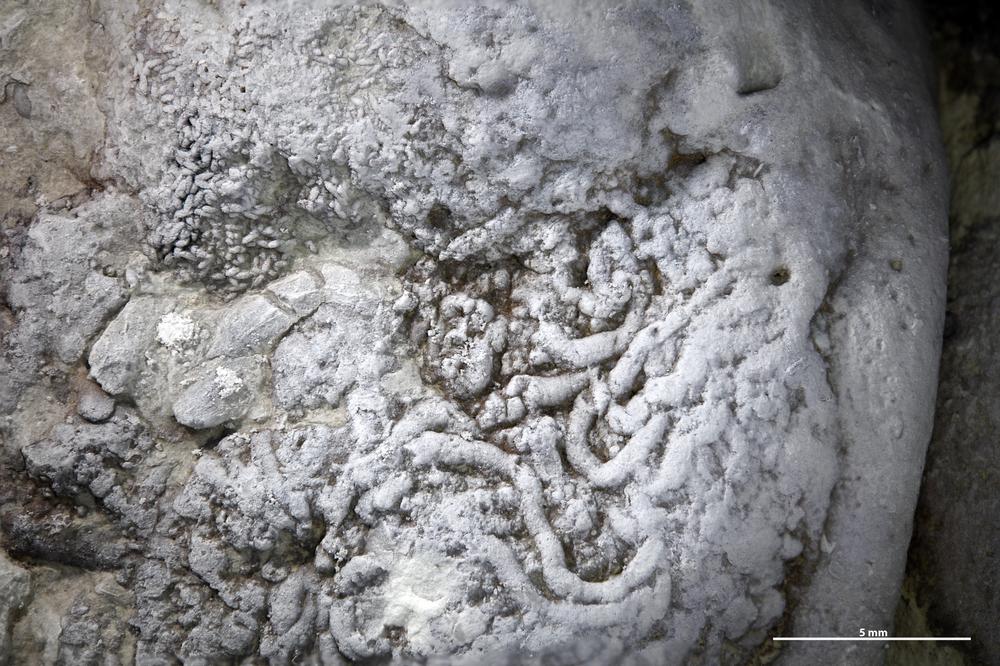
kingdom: Animalia
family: Lumbricariidae
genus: Lumbricaria
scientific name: Lumbricaria
